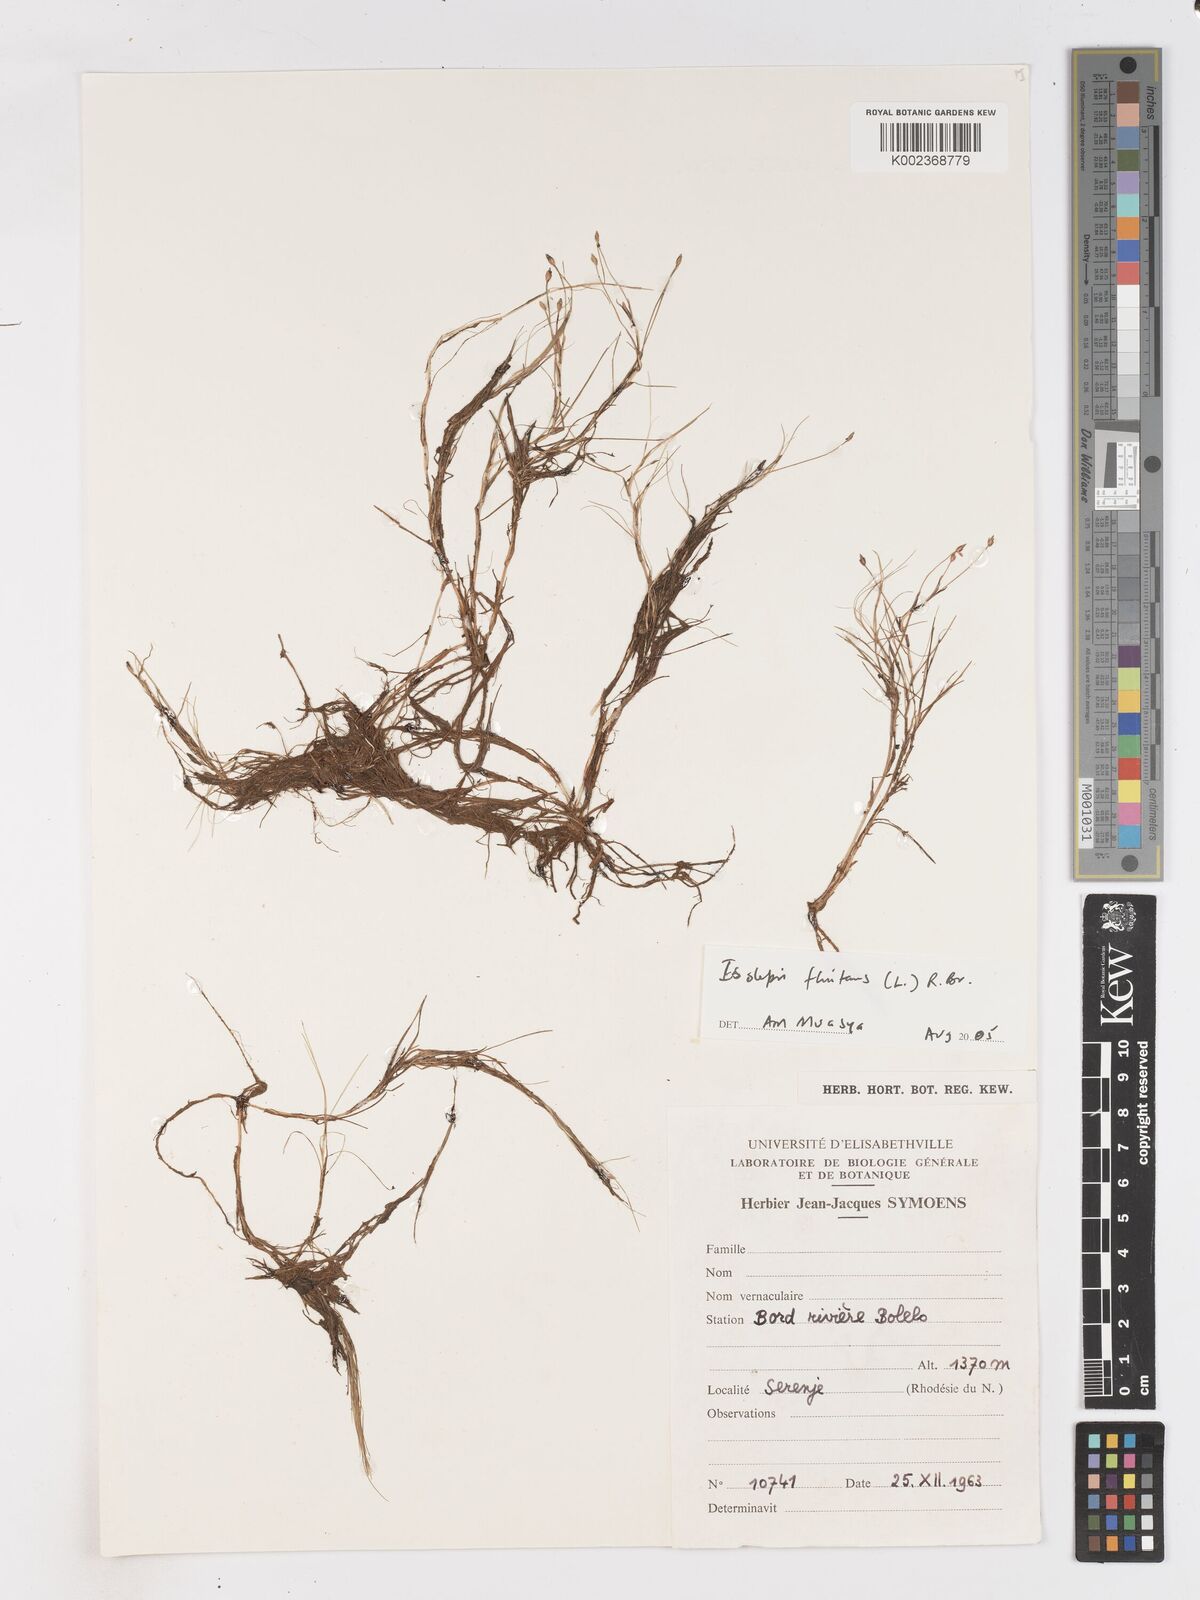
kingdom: Plantae
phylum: Tracheophyta
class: Liliopsida
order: Poales
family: Cyperaceae
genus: Isolepis
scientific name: Isolepis fluitans
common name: Floating club-rush
